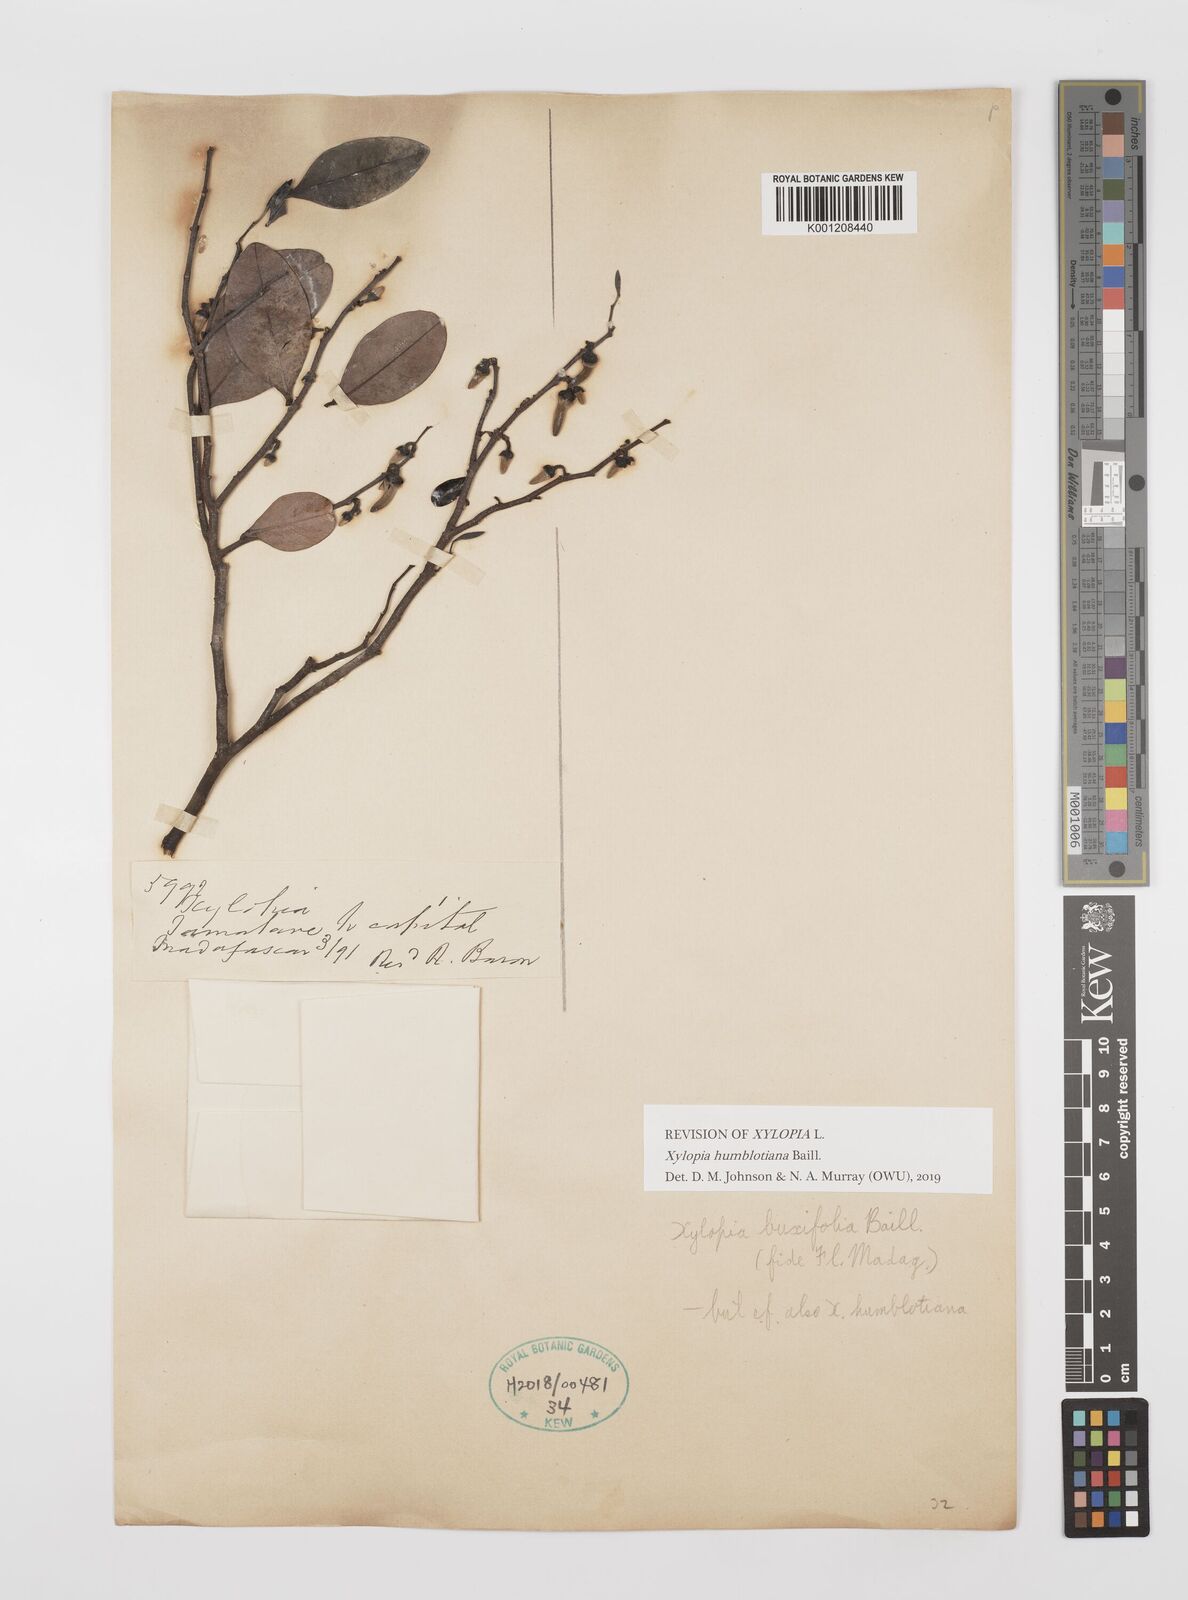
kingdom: Plantae
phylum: Tracheophyta
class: Magnoliopsida
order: Magnoliales
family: Annonaceae
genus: Xylopia
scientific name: Xylopia buxifolia
